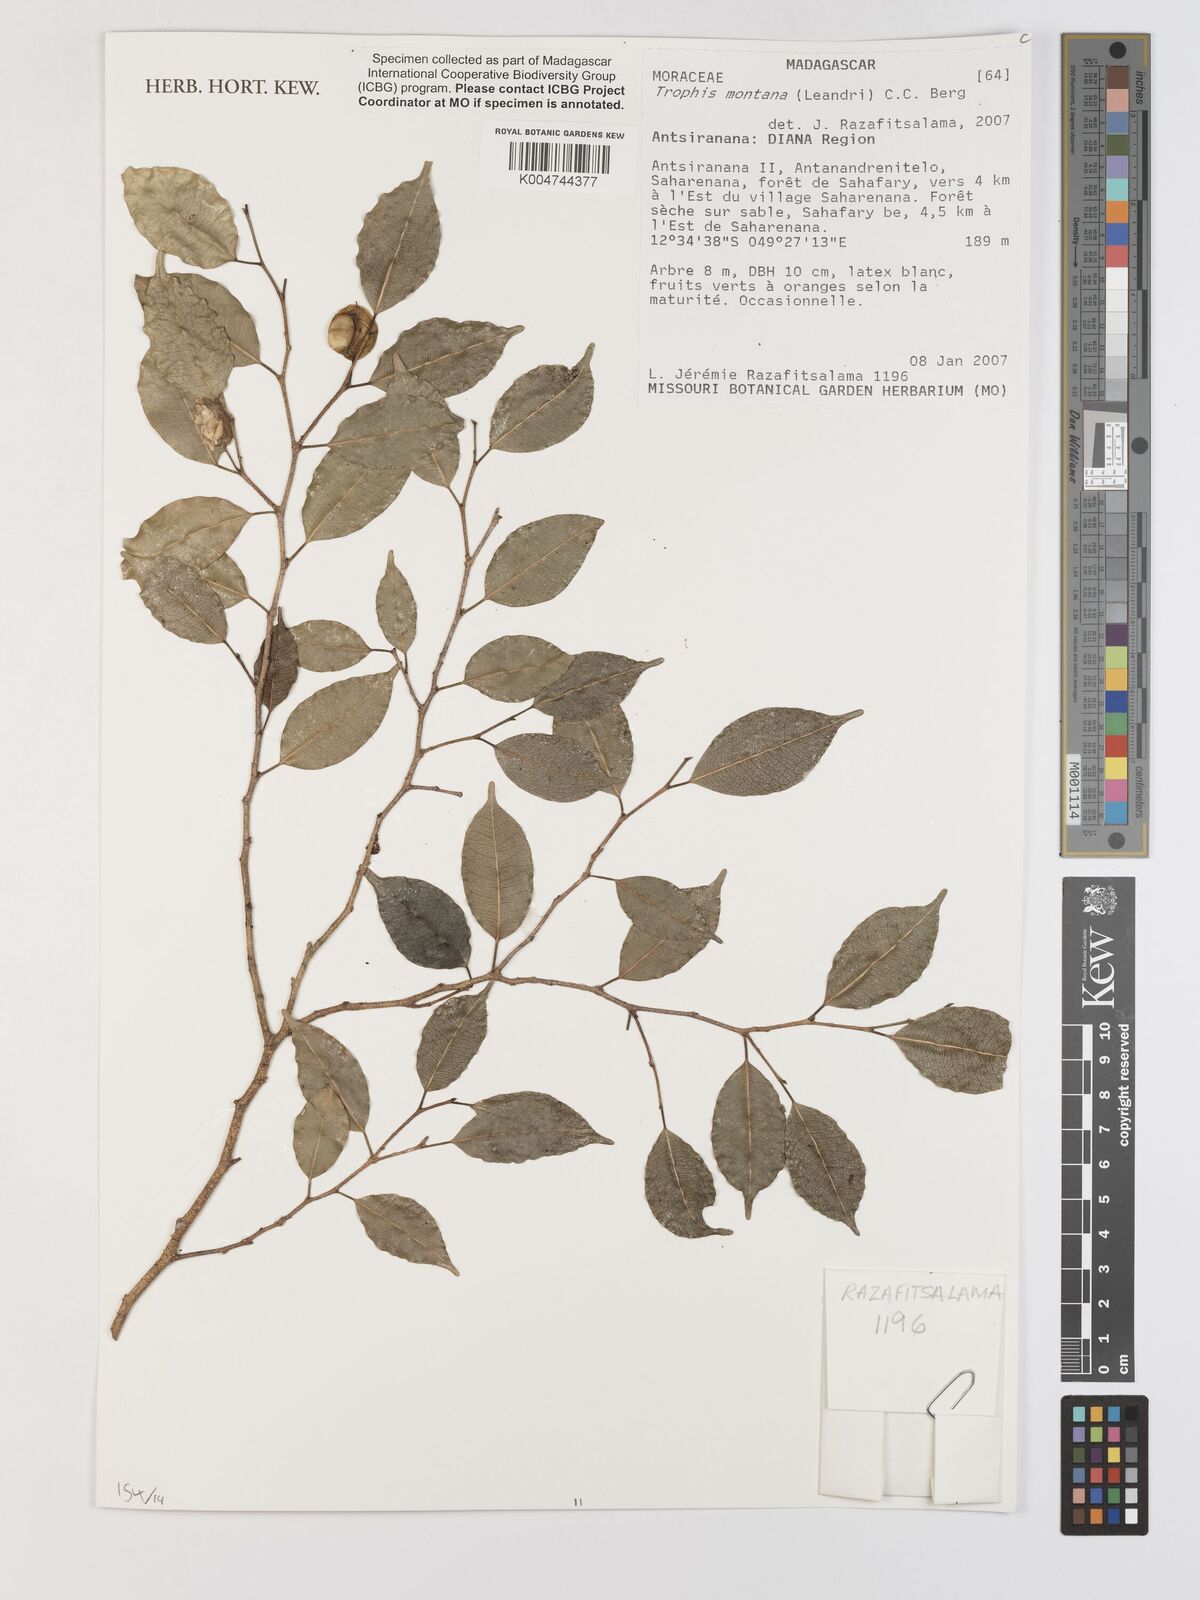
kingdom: Plantae
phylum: Tracheophyta
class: Magnoliopsida
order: Rosales
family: Moraceae
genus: Maillardia
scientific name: Maillardia montana
